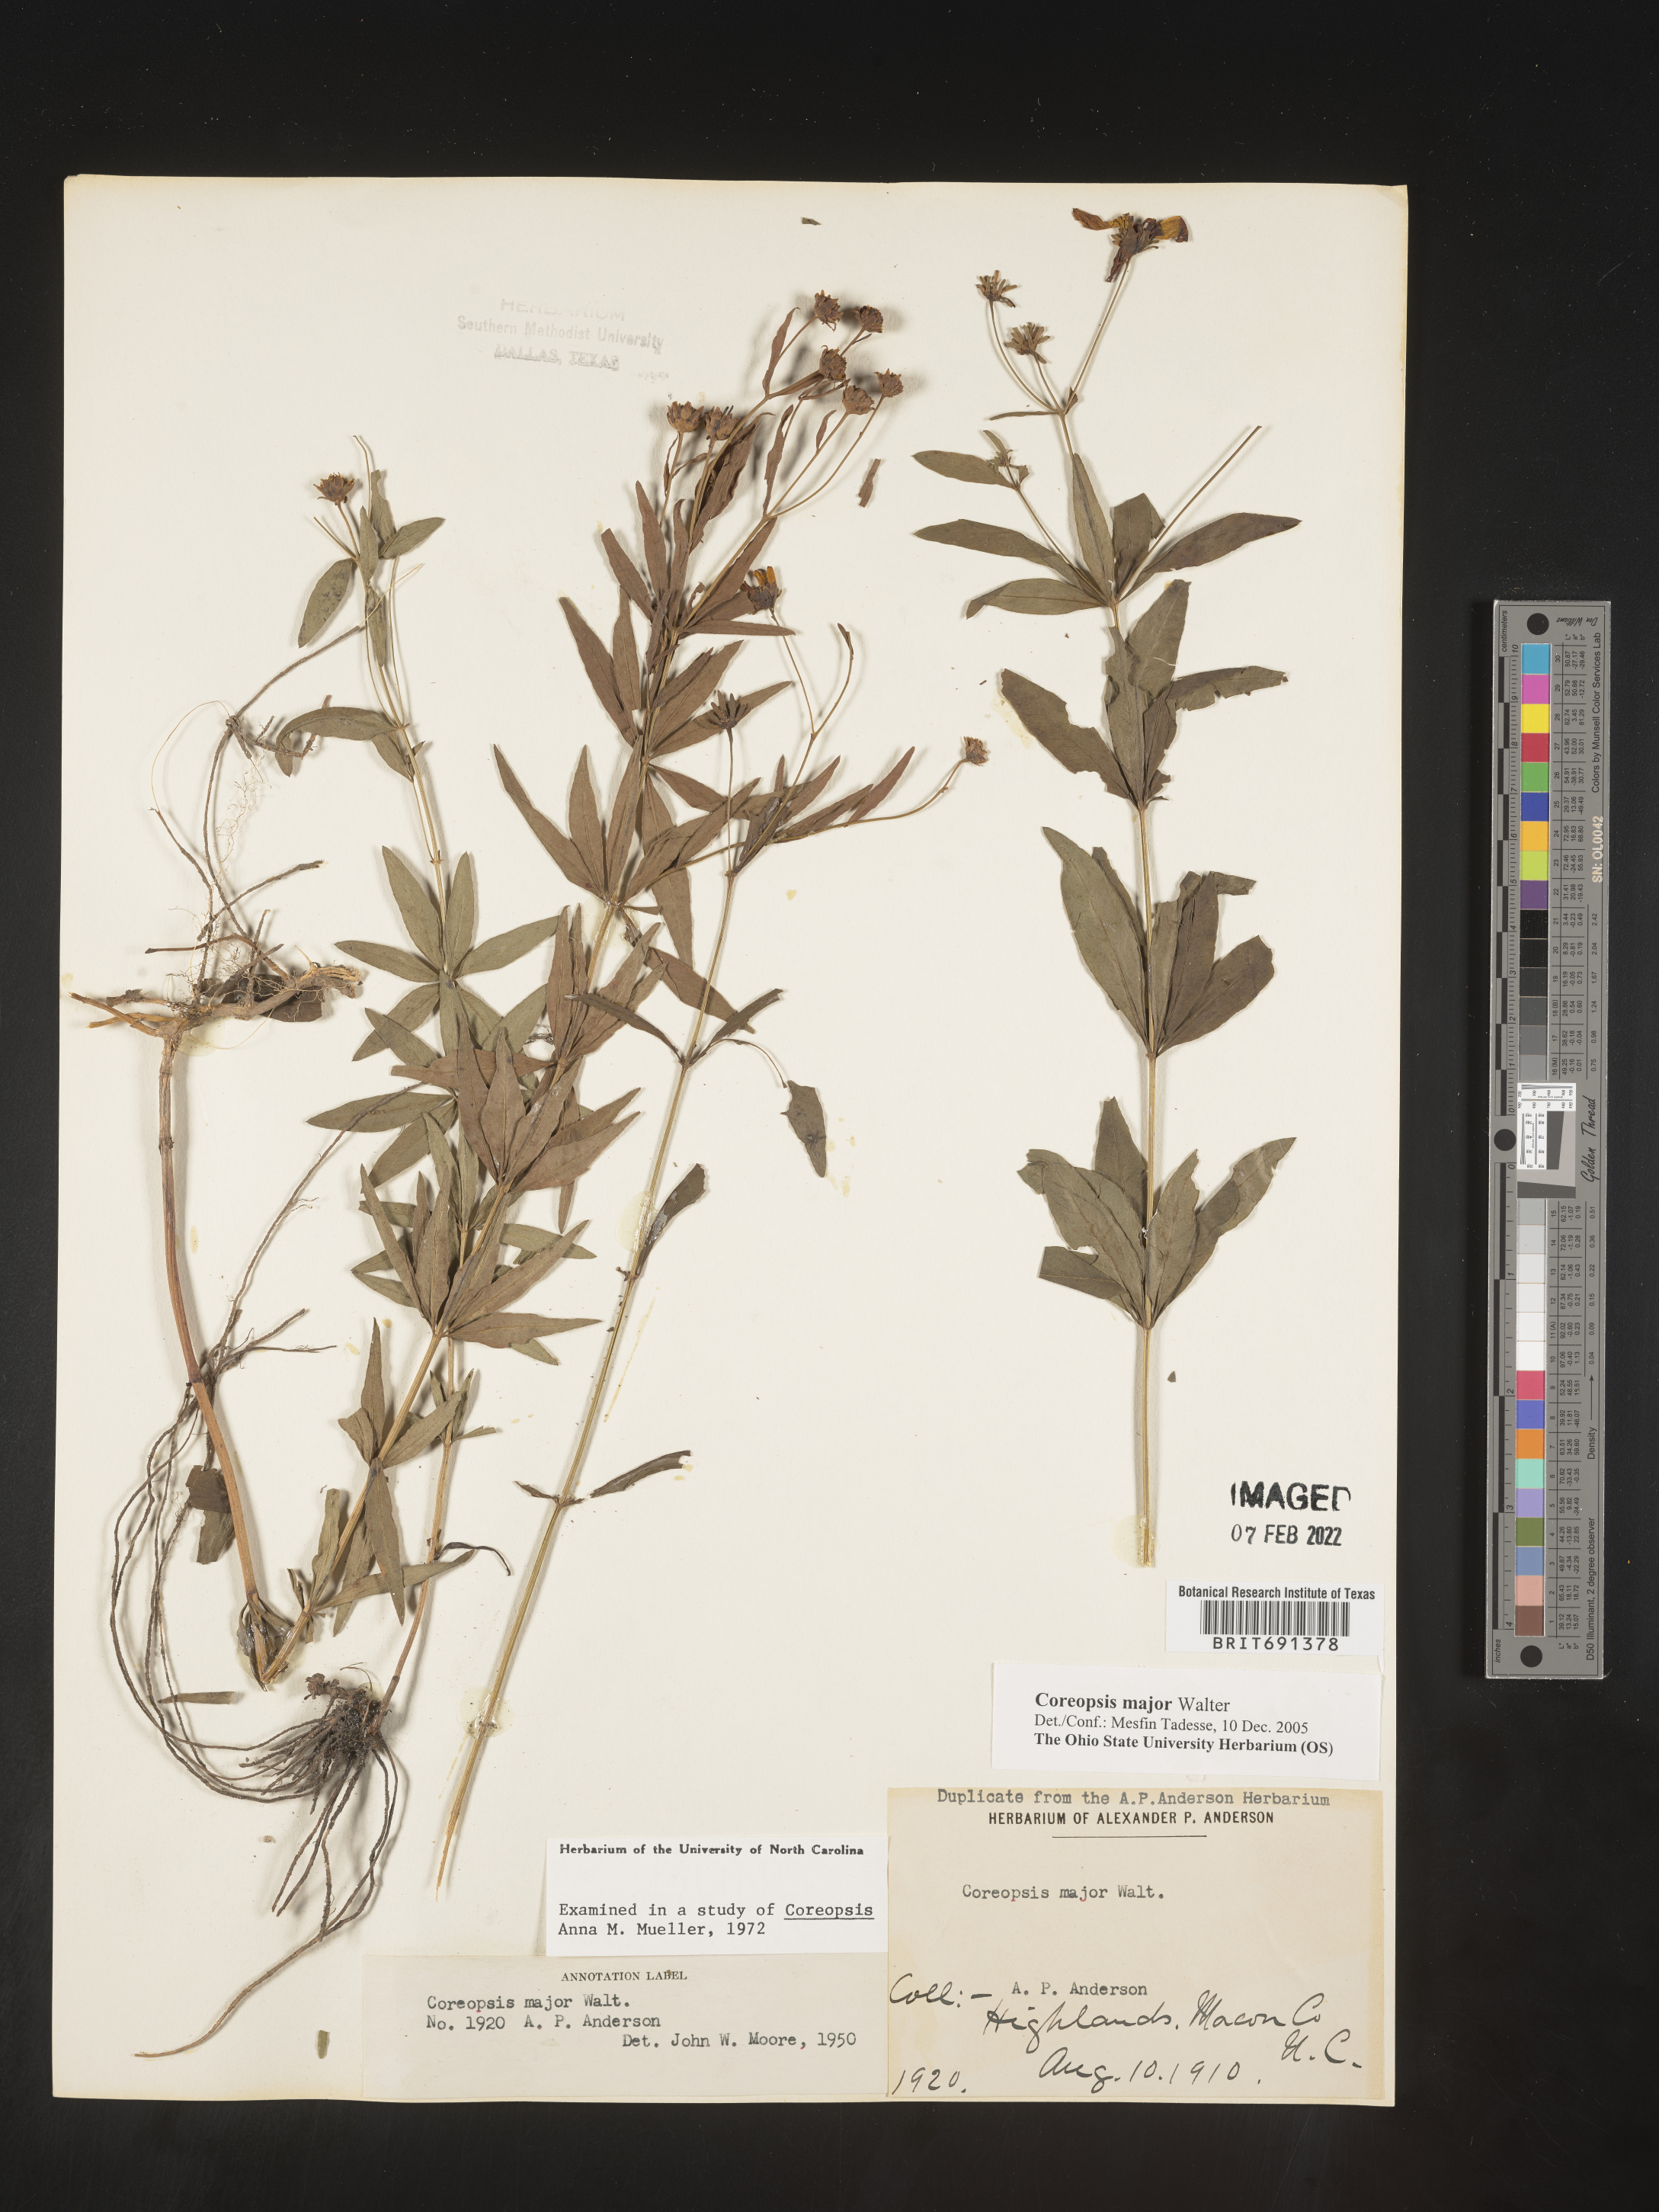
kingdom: Plantae
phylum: Tracheophyta
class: Magnoliopsida
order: Asterales
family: Asteraceae
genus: Coreopsis
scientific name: Coreopsis major
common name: Forest tickseed
